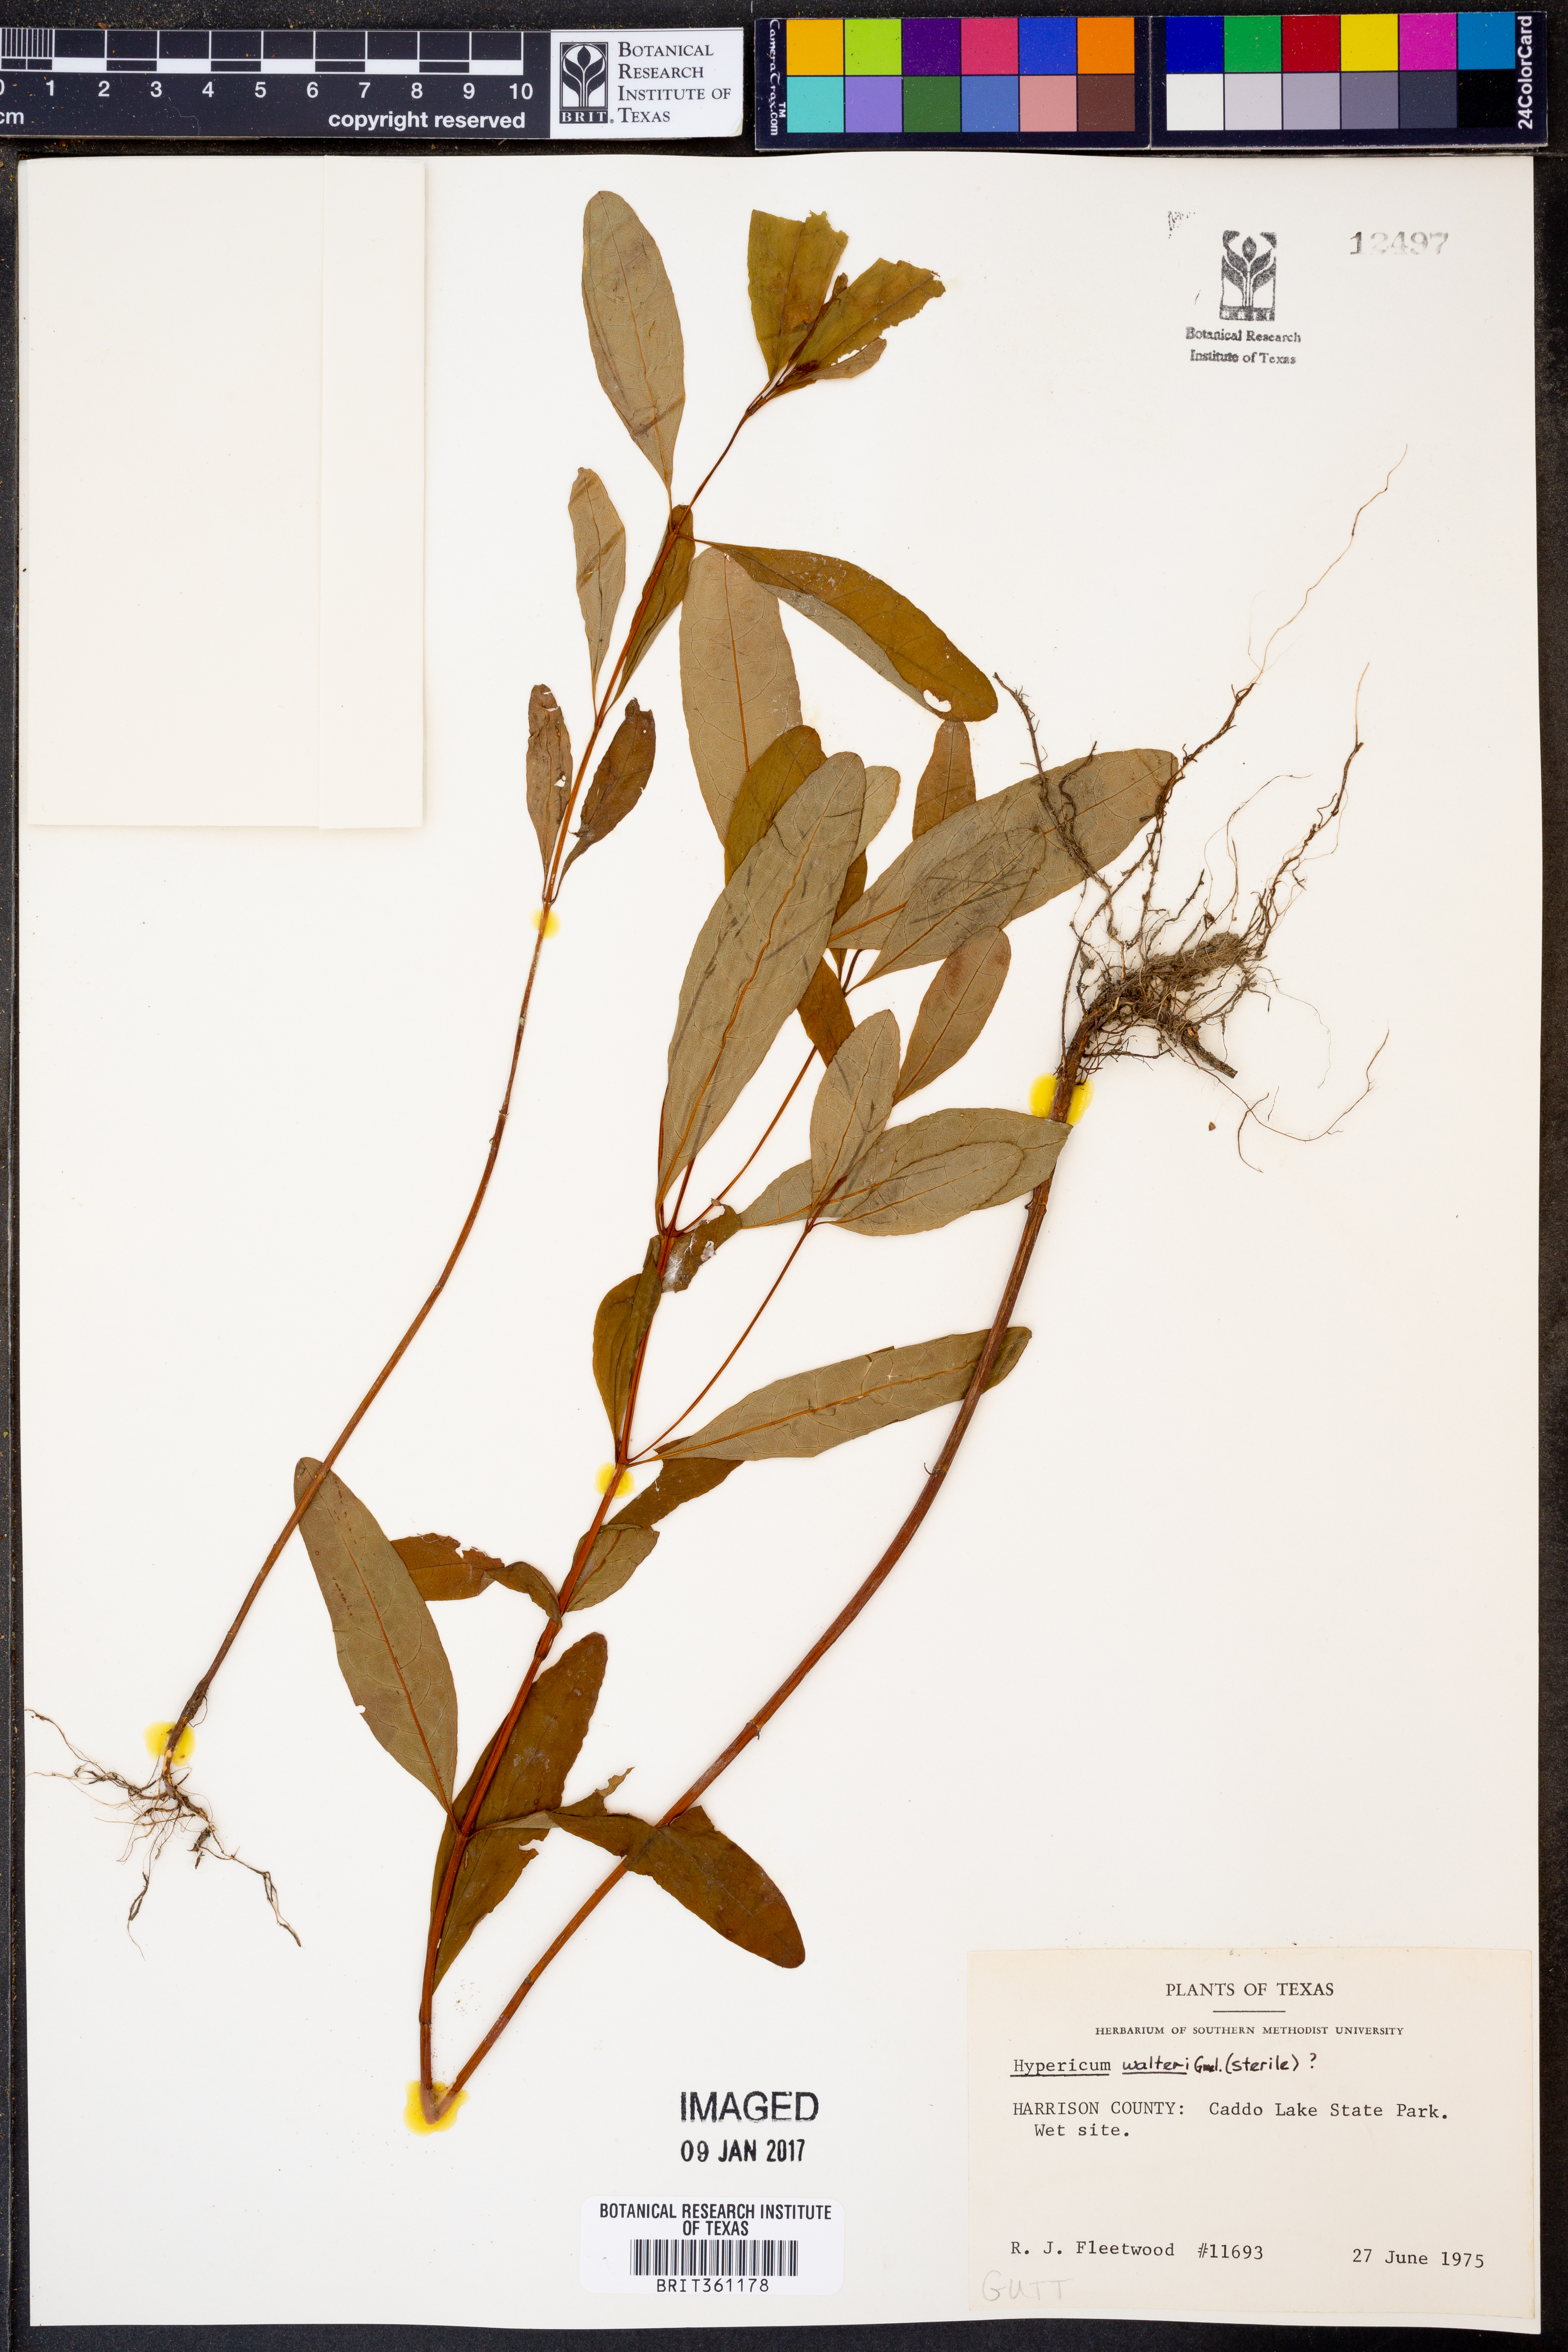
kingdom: Plantae
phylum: Tracheophyta
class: Magnoliopsida
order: Malpighiales
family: Hypericaceae
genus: Triadenum
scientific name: Triadenum walteri
